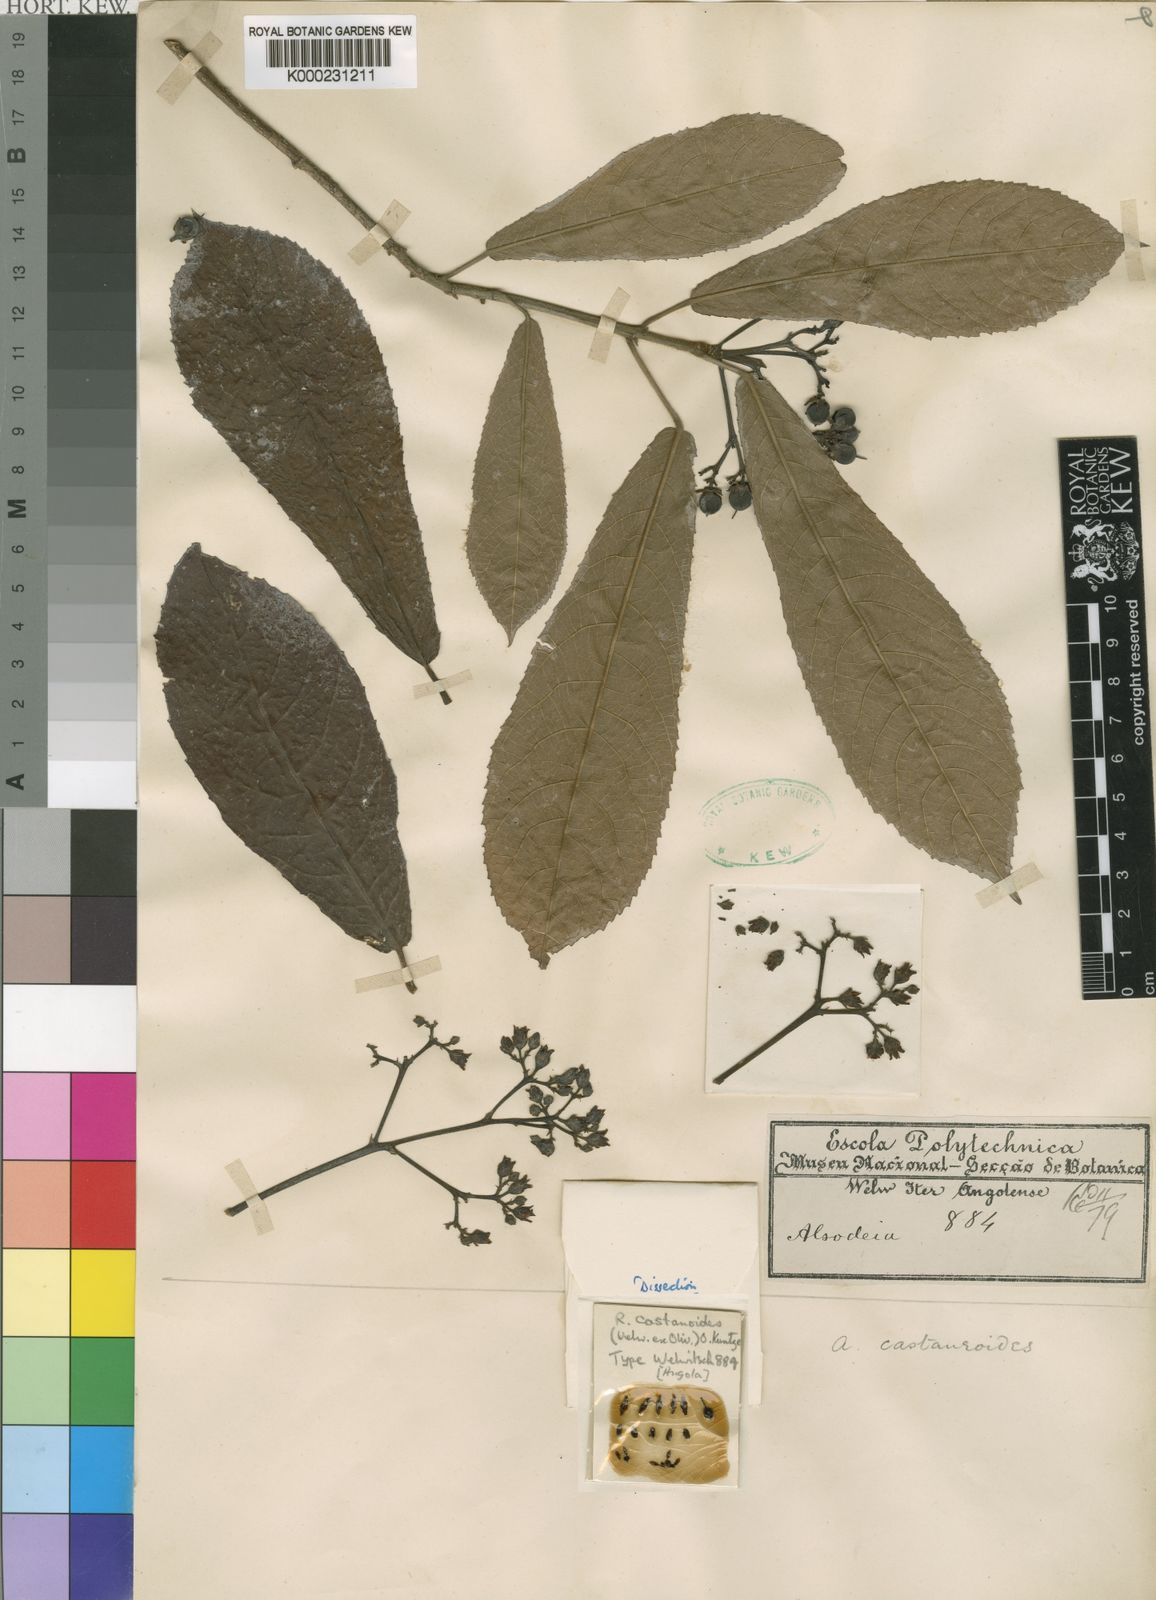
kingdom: Plantae
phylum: Tracheophyta
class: Magnoliopsida
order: Malpighiales
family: Violaceae
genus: Rinorea
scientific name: Rinorea castaneoides
